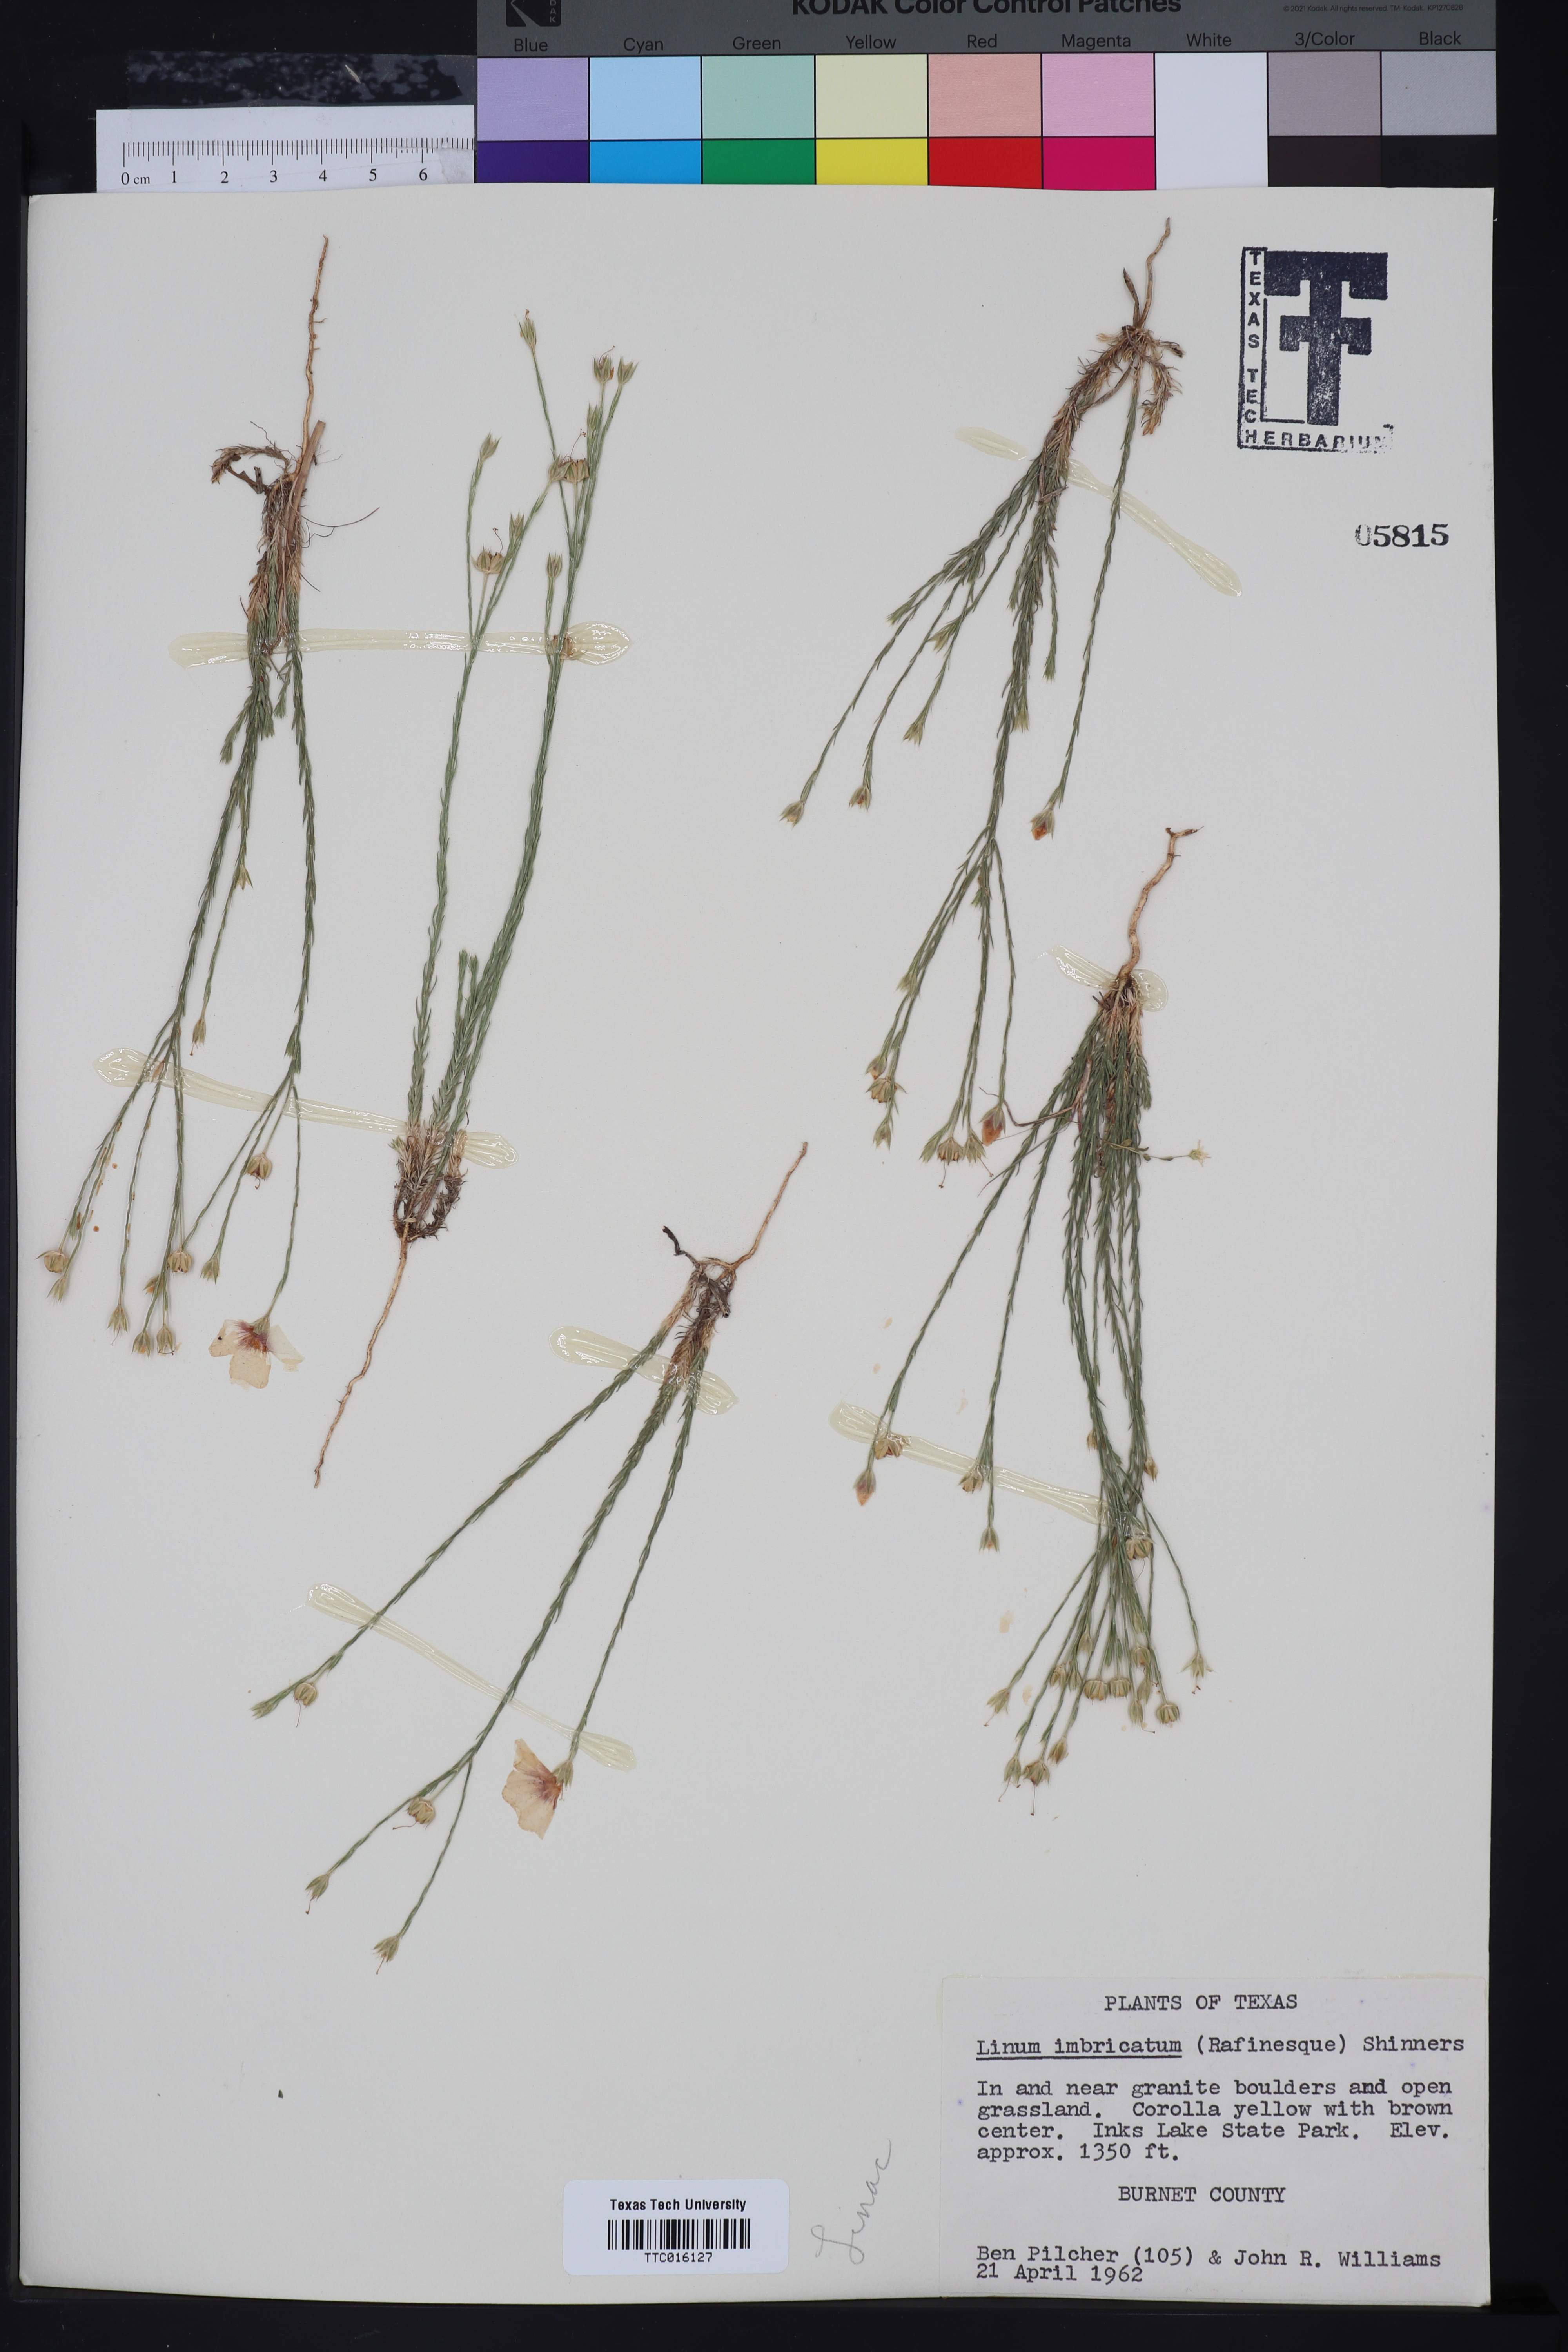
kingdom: Plantae
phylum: Tracheophyta
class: Magnoliopsida
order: Malpighiales
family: Linaceae
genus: Linum
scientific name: Linum imbricatum
